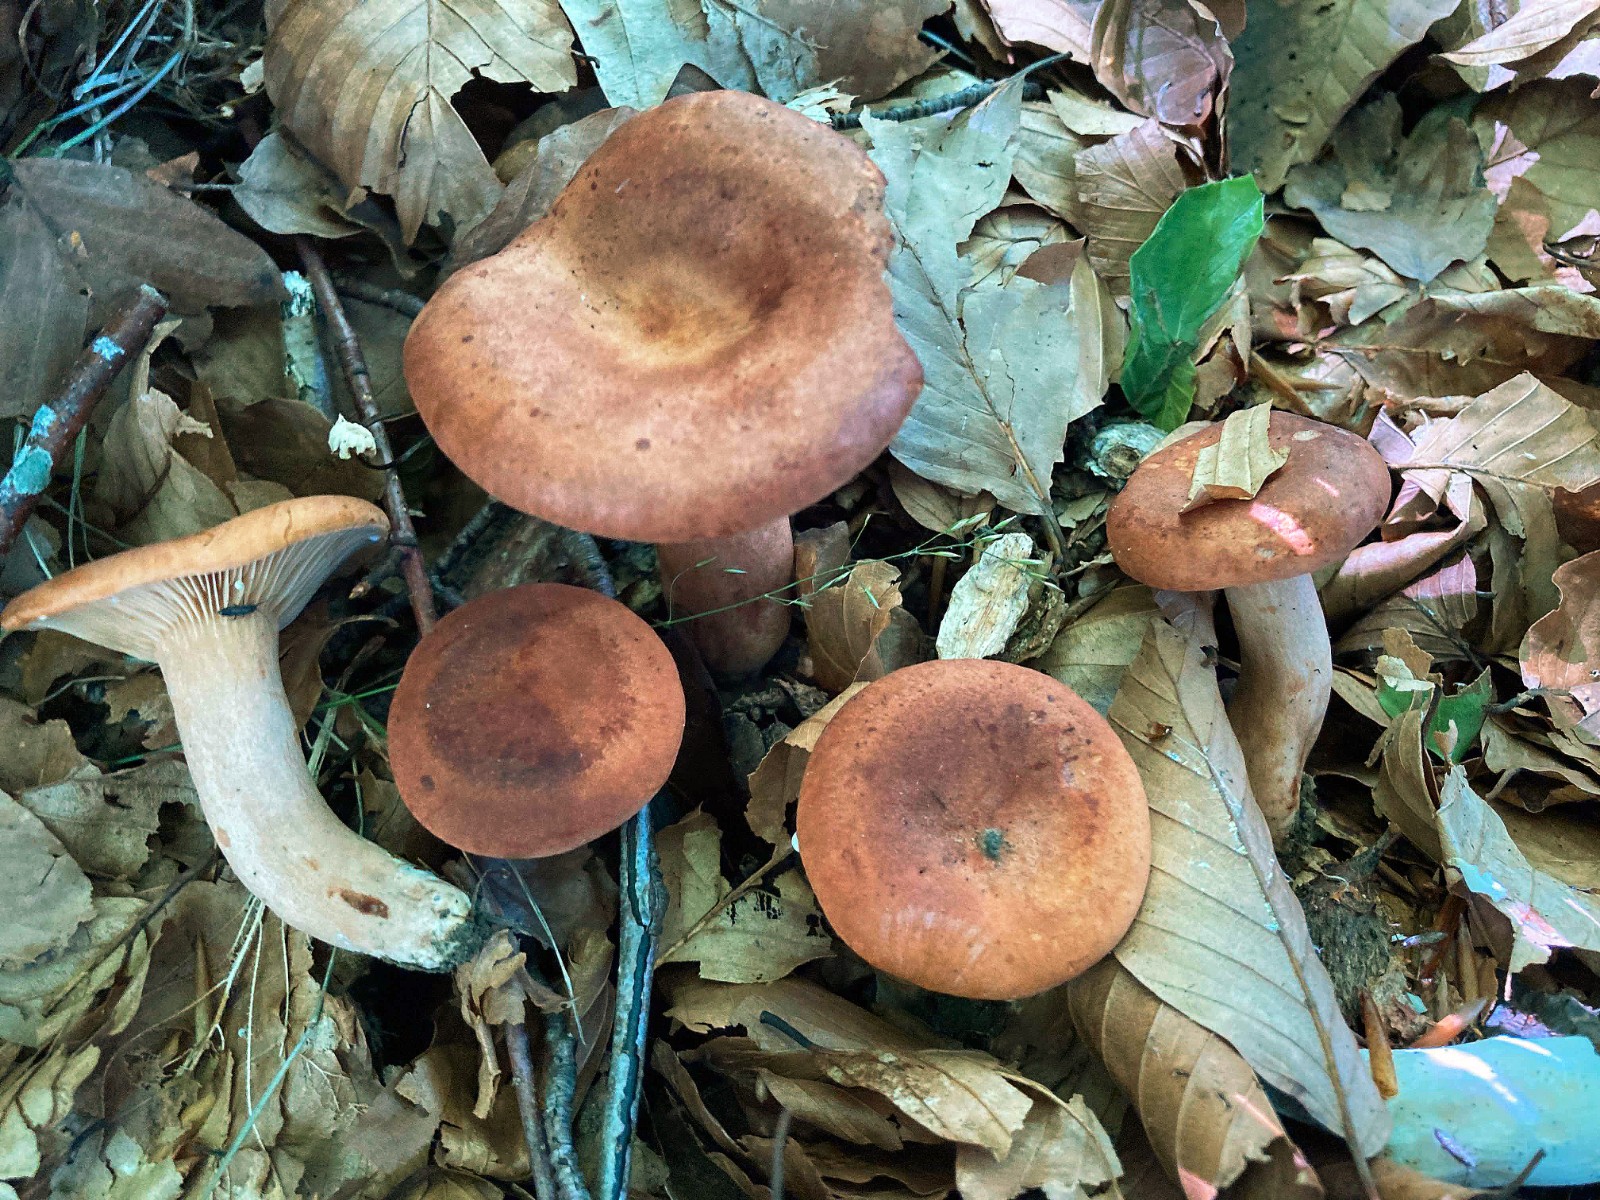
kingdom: Fungi
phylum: Basidiomycota
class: Agaricomycetes
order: Russulales
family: Russulaceae
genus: Lactarius
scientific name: Lactarius fulvissimus
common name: ræve-mælkehat
